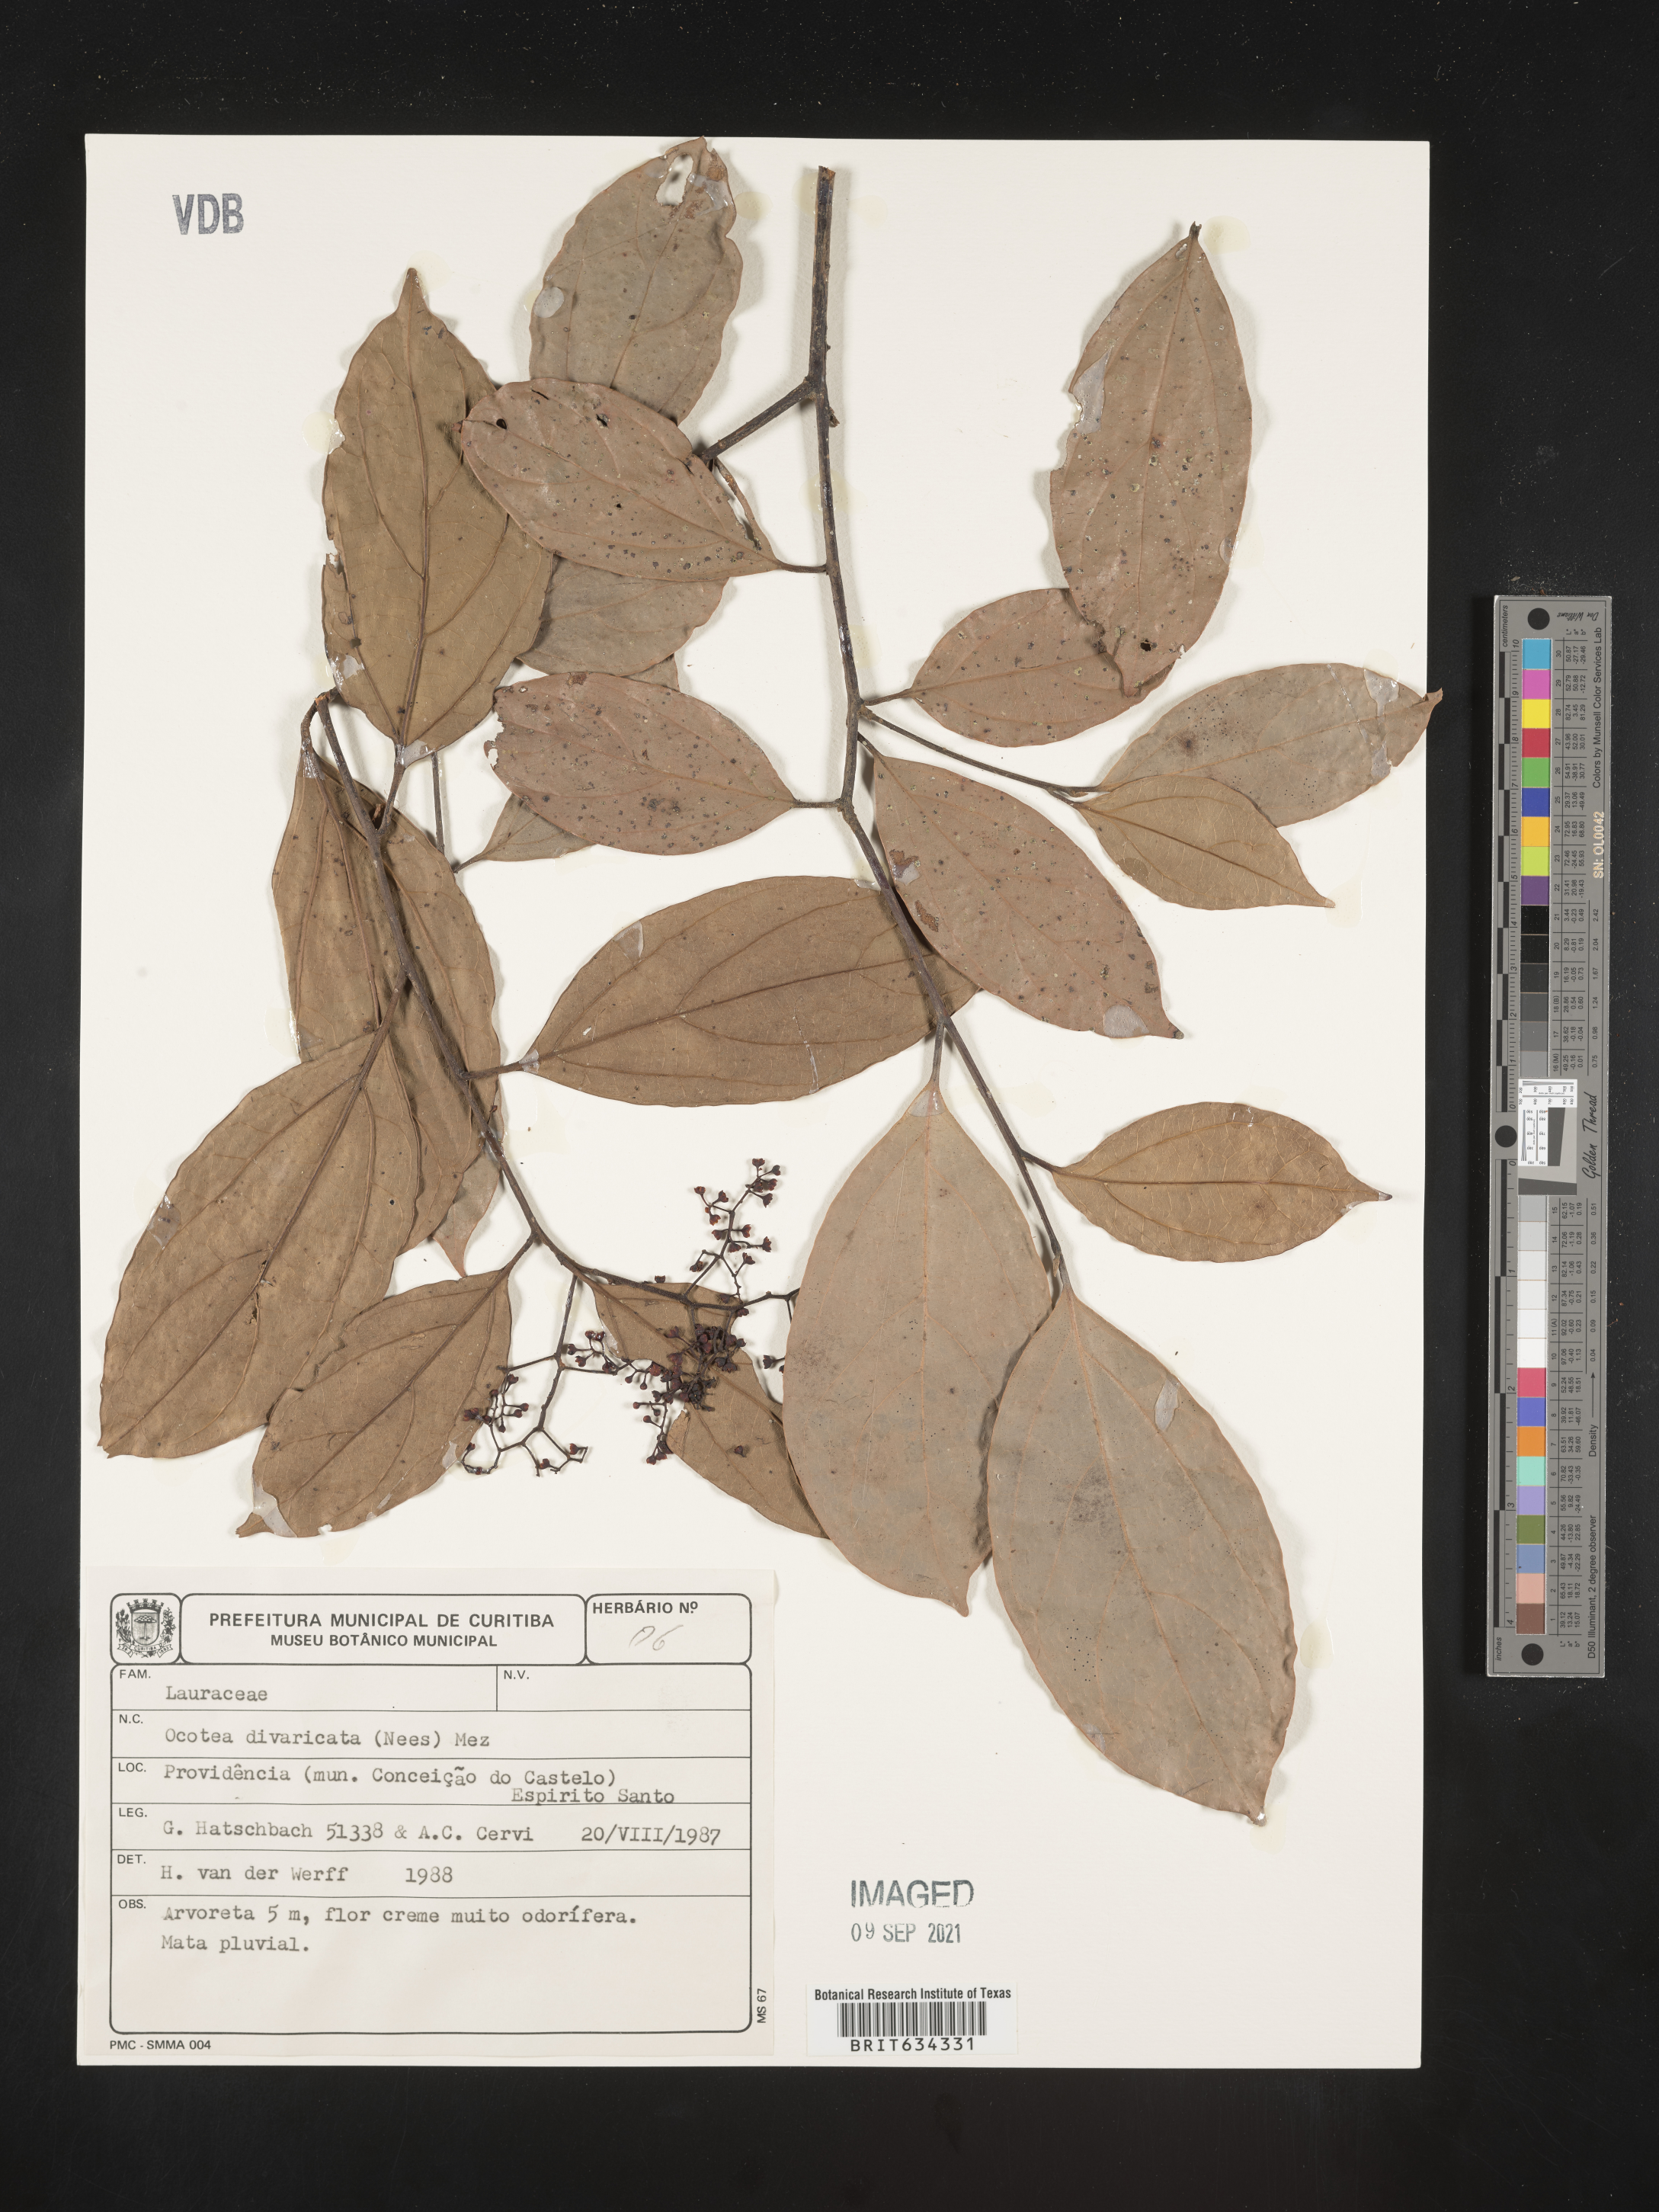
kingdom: Plantae
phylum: Tracheophyta
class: Magnoliopsida
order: Laurales
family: Lauraceae
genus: Ocotea
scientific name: Ocotea
